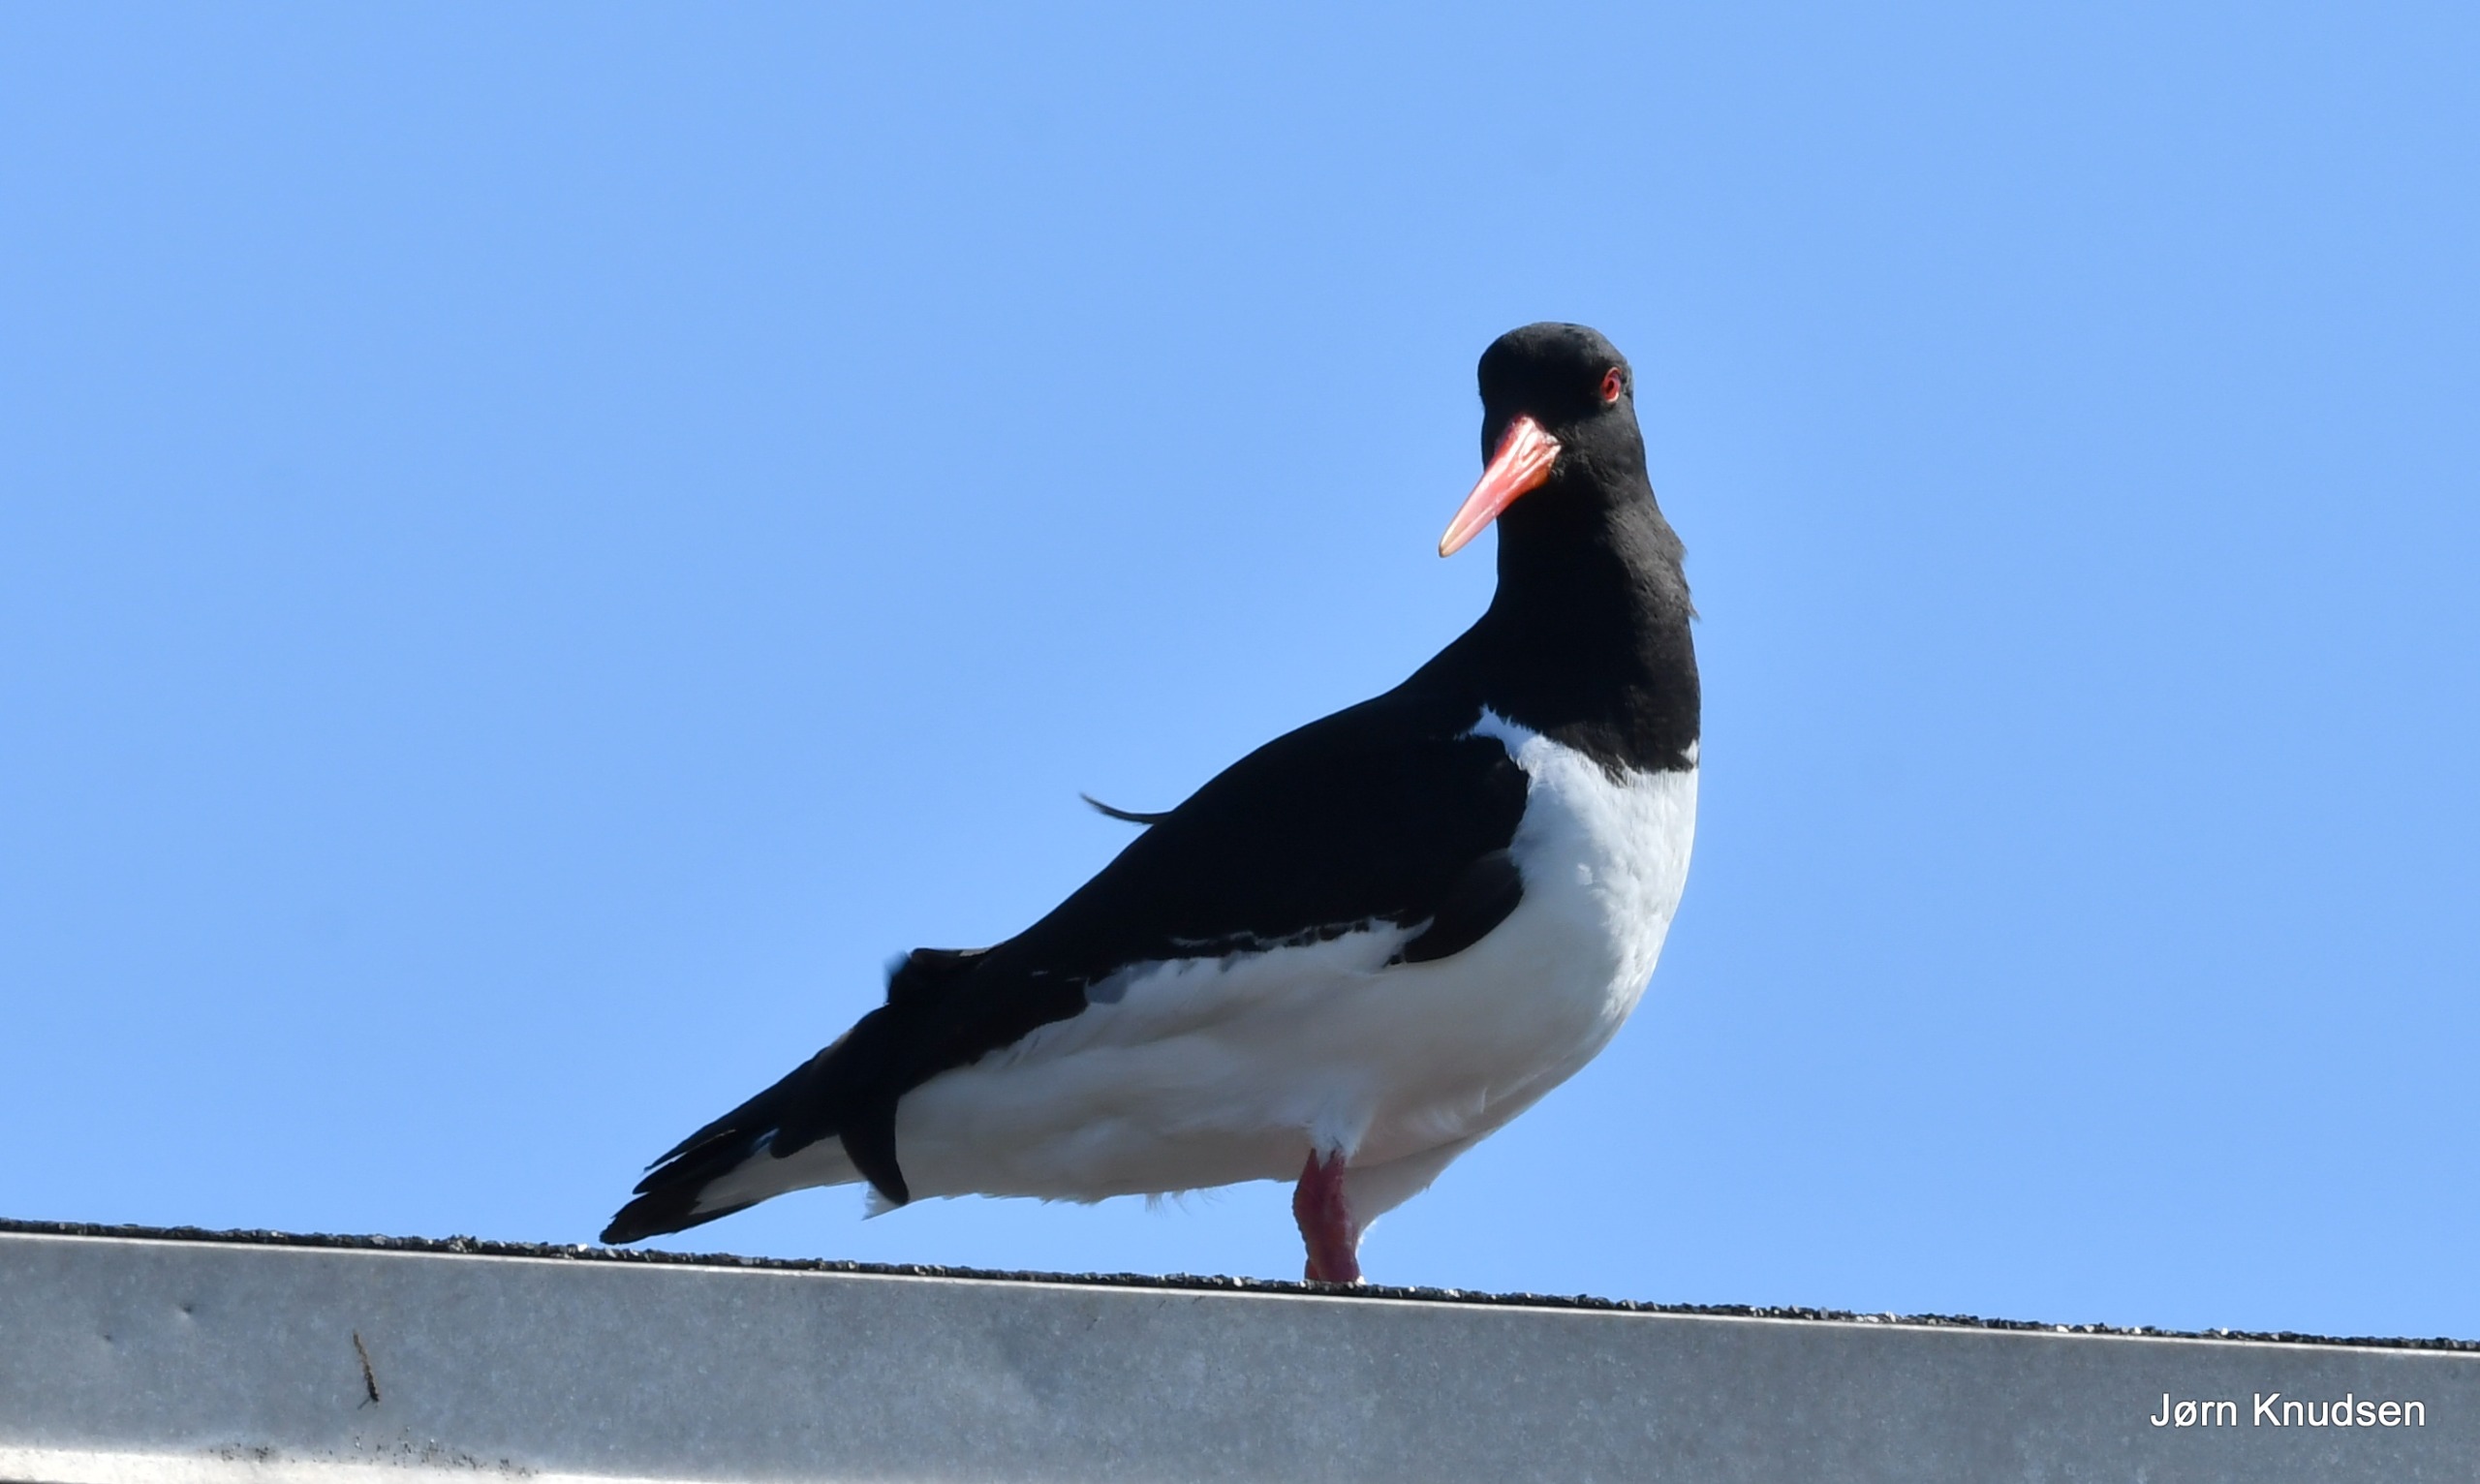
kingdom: Animalia
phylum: Chordata
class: Aves
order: Charadriiformes
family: Haematopodidae
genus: Haematopus
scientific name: Haematopus ostralegus
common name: Strandskade
